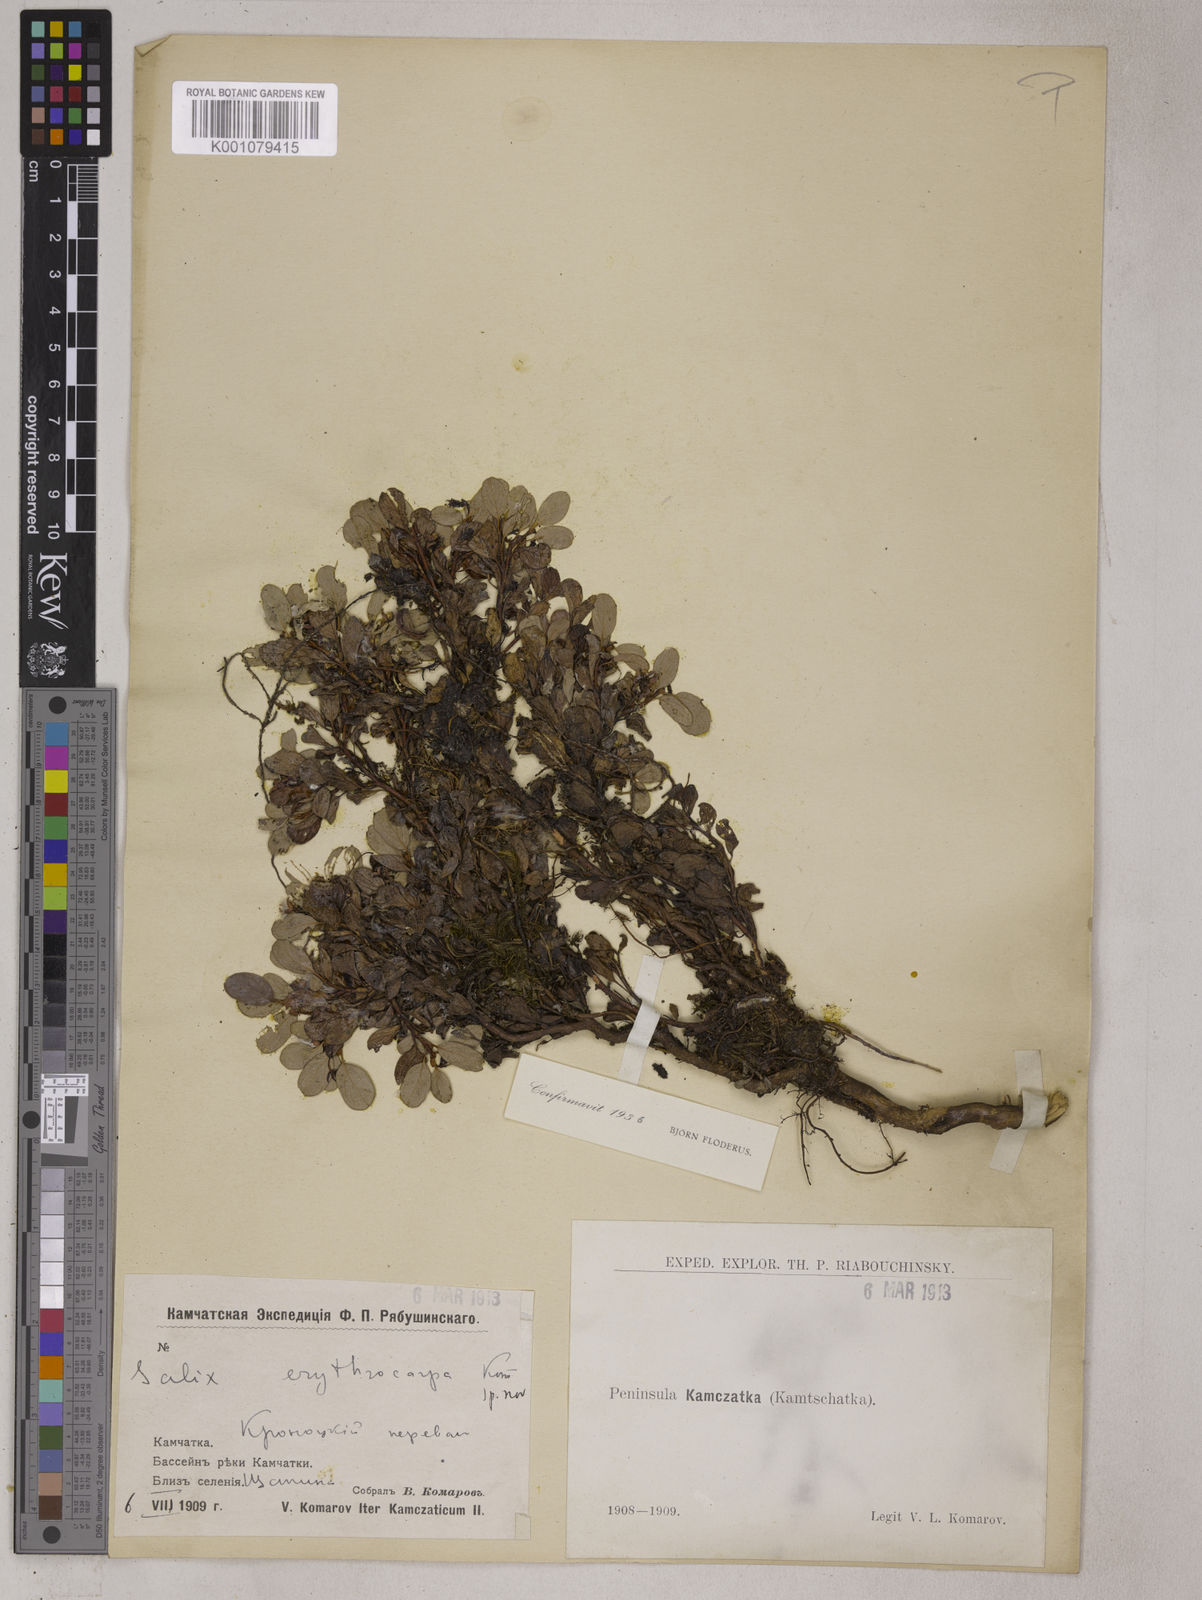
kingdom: Plantae
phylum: Tracheophyta
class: Magnoliopsida
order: Malpighiales
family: Salicaceae
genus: Salix
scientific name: Salix erythrocarpa
